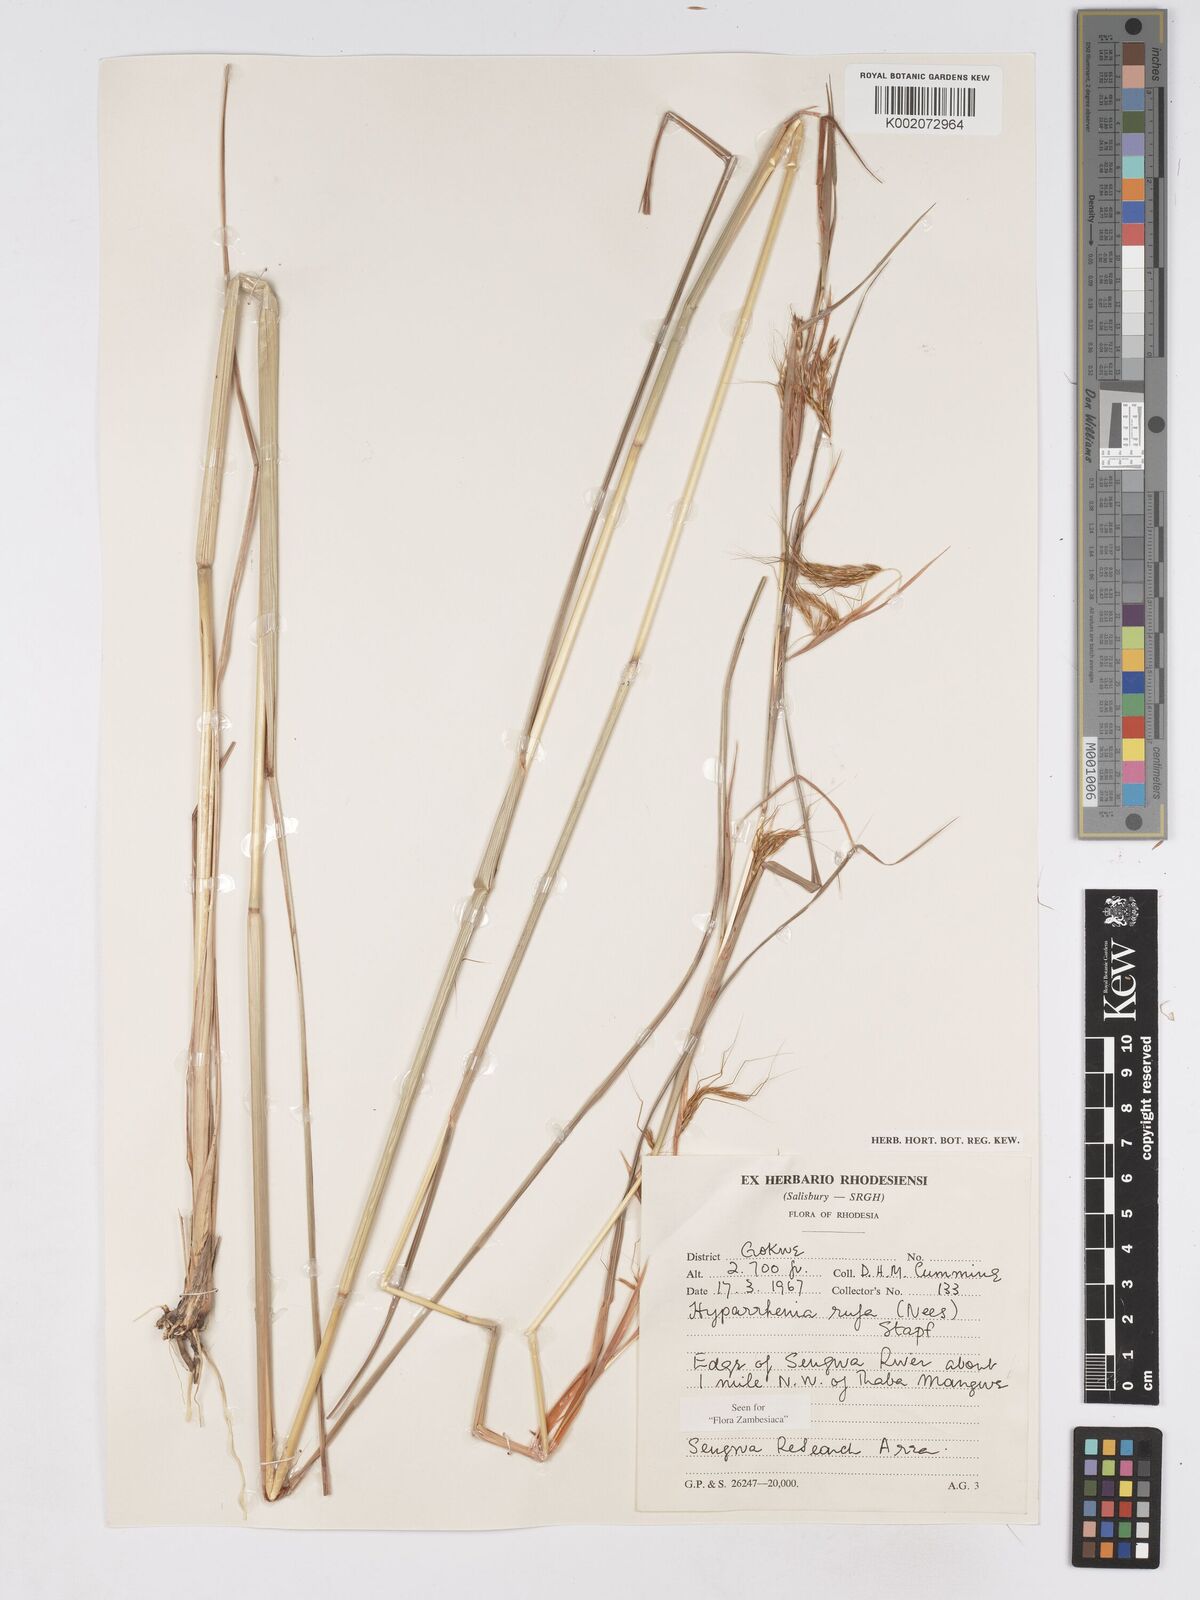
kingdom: Plantae
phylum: Tracheophyta
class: Liliopsida
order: Poales
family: Poaceae
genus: Hyparrhenia
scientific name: Hyparrhenia rufa
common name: Jaraguagrass
